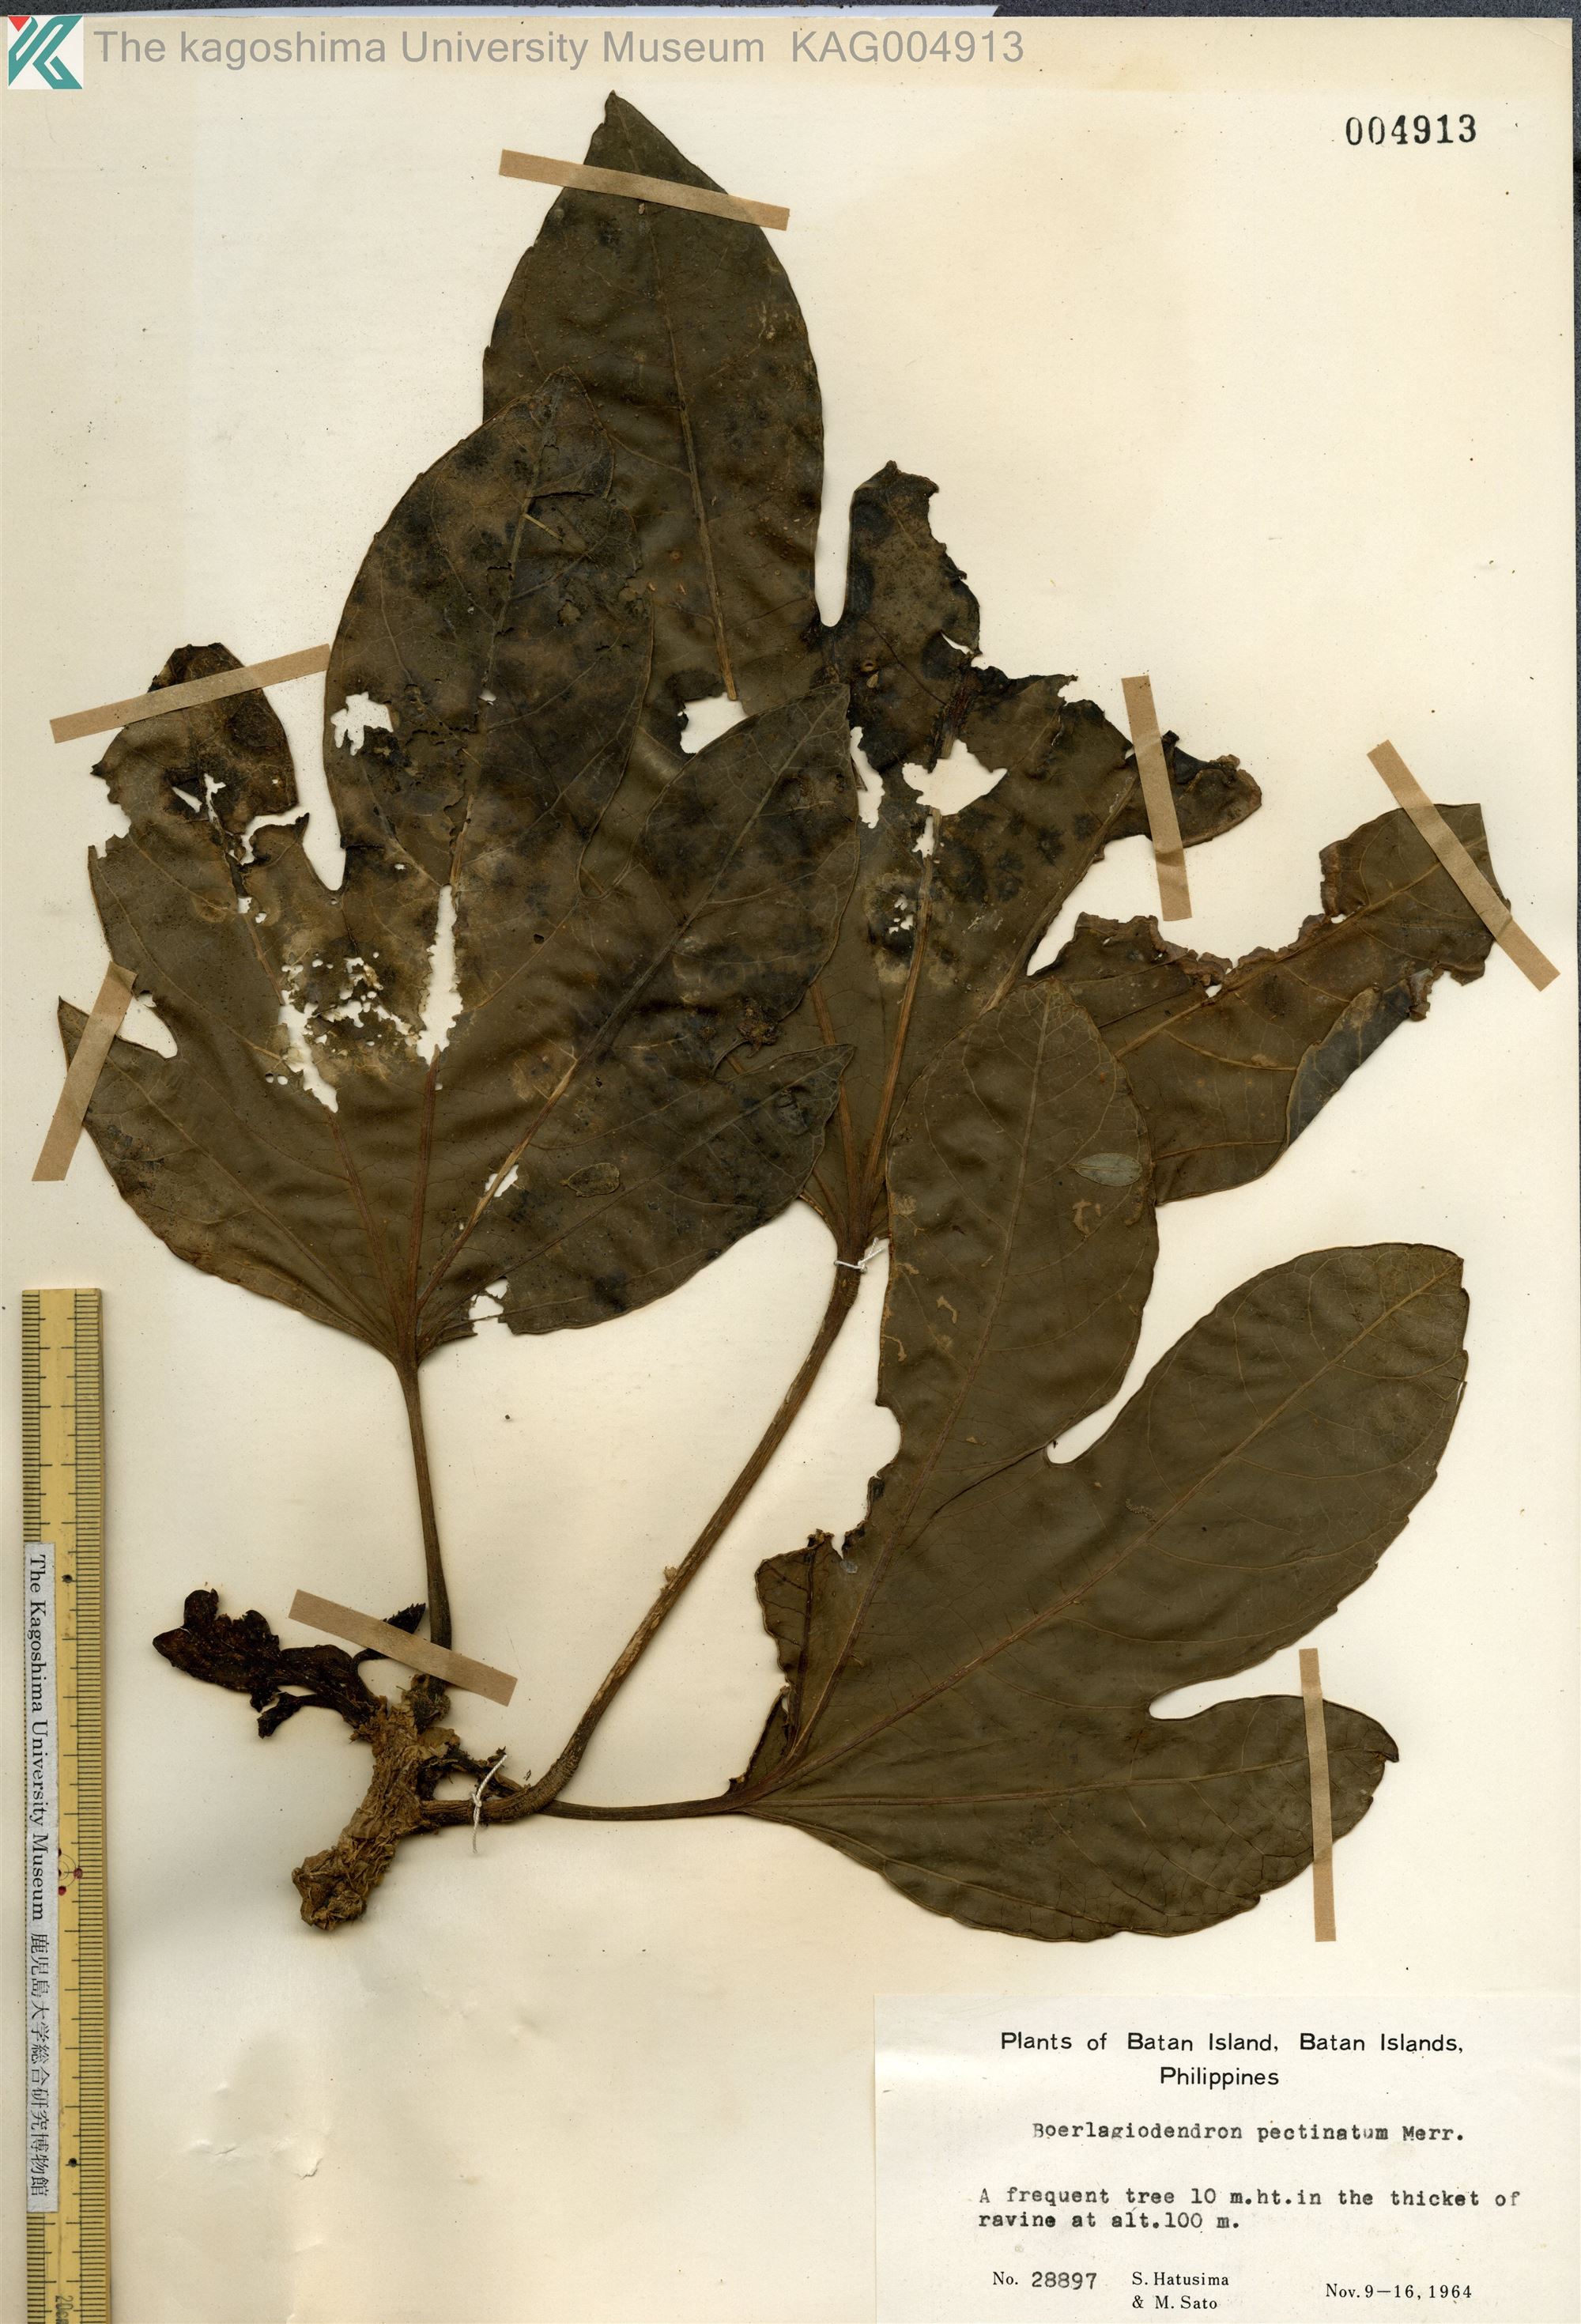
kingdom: Plantae
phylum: Tracheophyta
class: Magnoliopsida
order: Apiales
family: Araliaceae
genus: Osmoxylon
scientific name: Osmoxylon pectinatum
